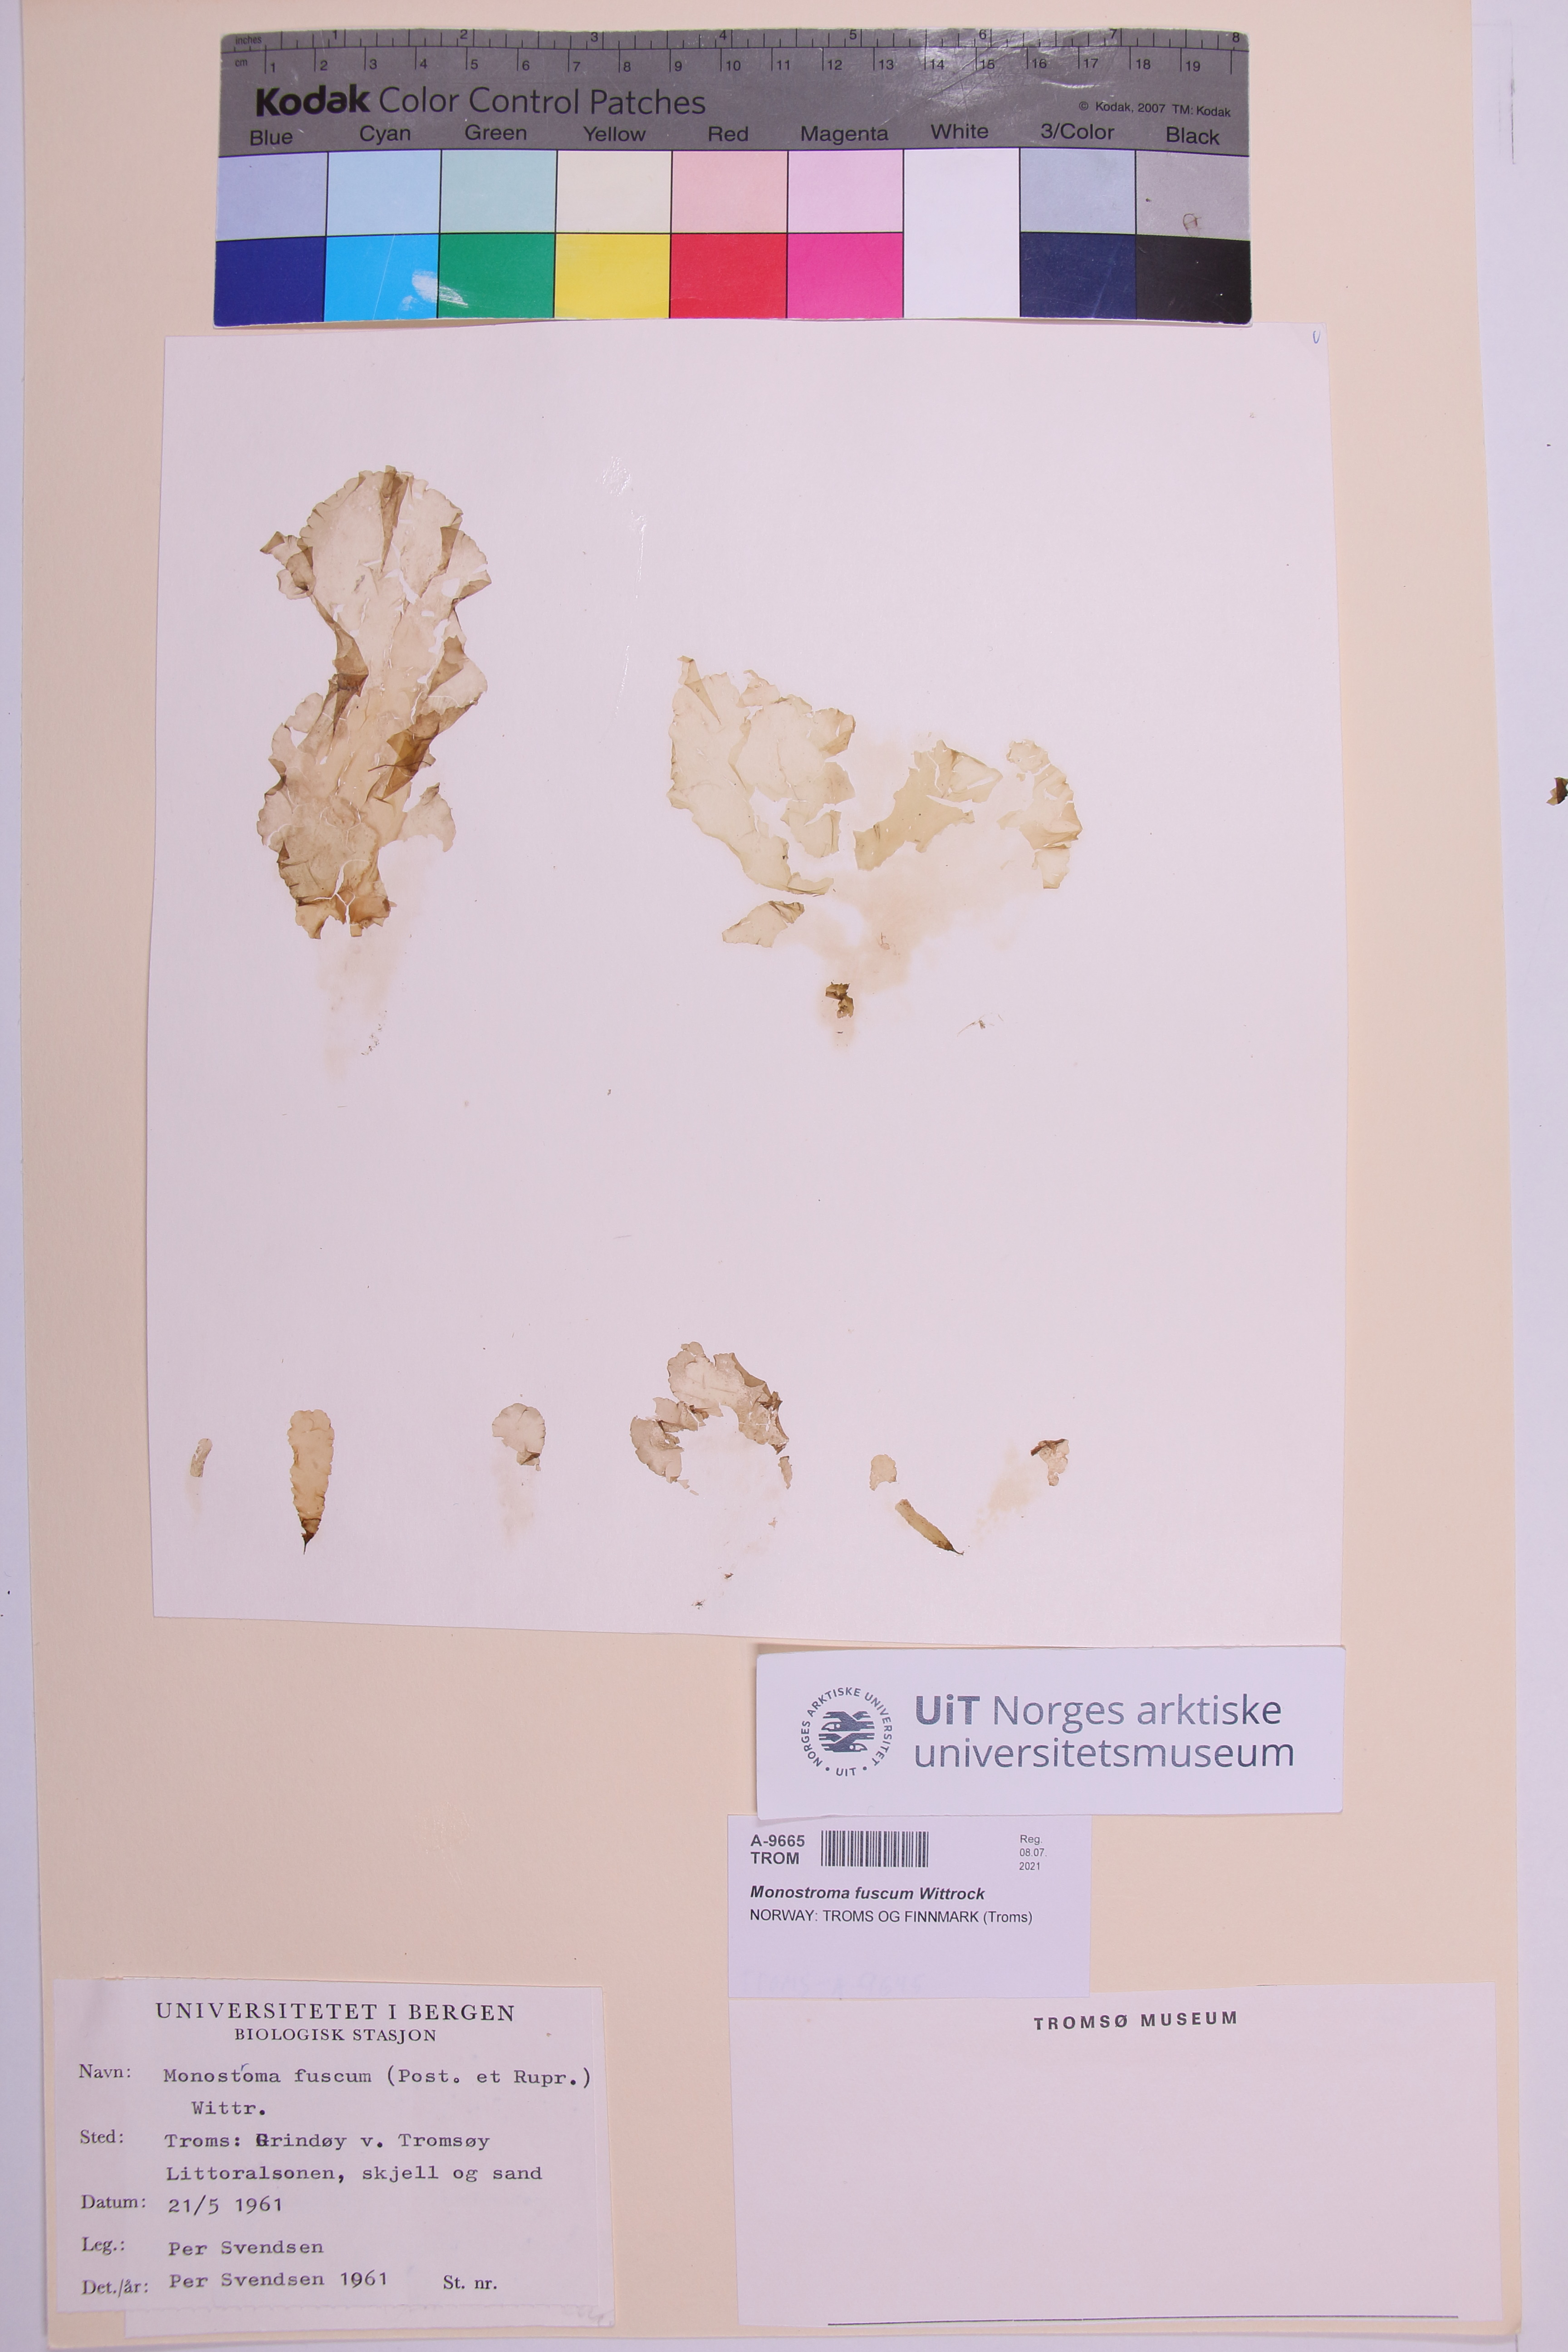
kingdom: Plantae
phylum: Chlorophyta
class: Ulvophyceae
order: Ulvales
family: Ulvaceae
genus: Ulvaria
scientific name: Ulvaria splendens
